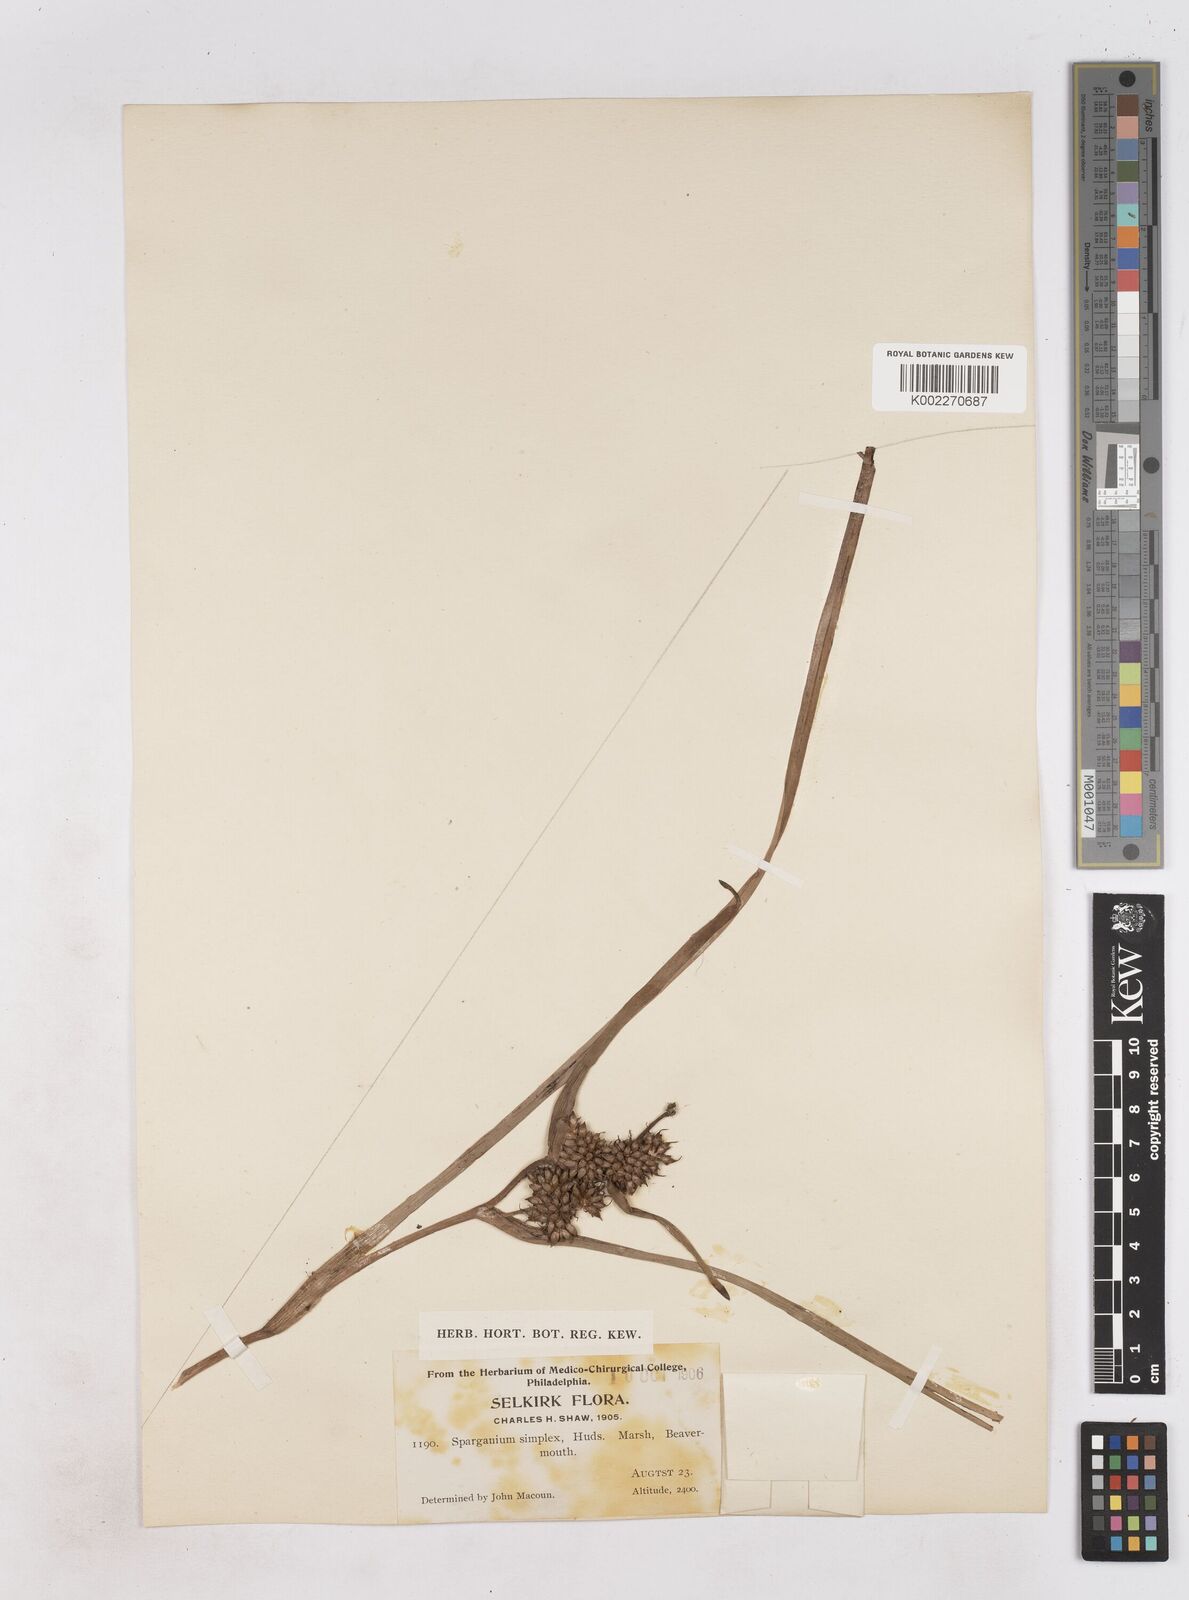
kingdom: Plantae
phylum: Tracheophyta
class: Liliopsida
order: Poales
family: Typhaceae
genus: Sparganium
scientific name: Sparganium emersum
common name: Unbranched bur-reed
